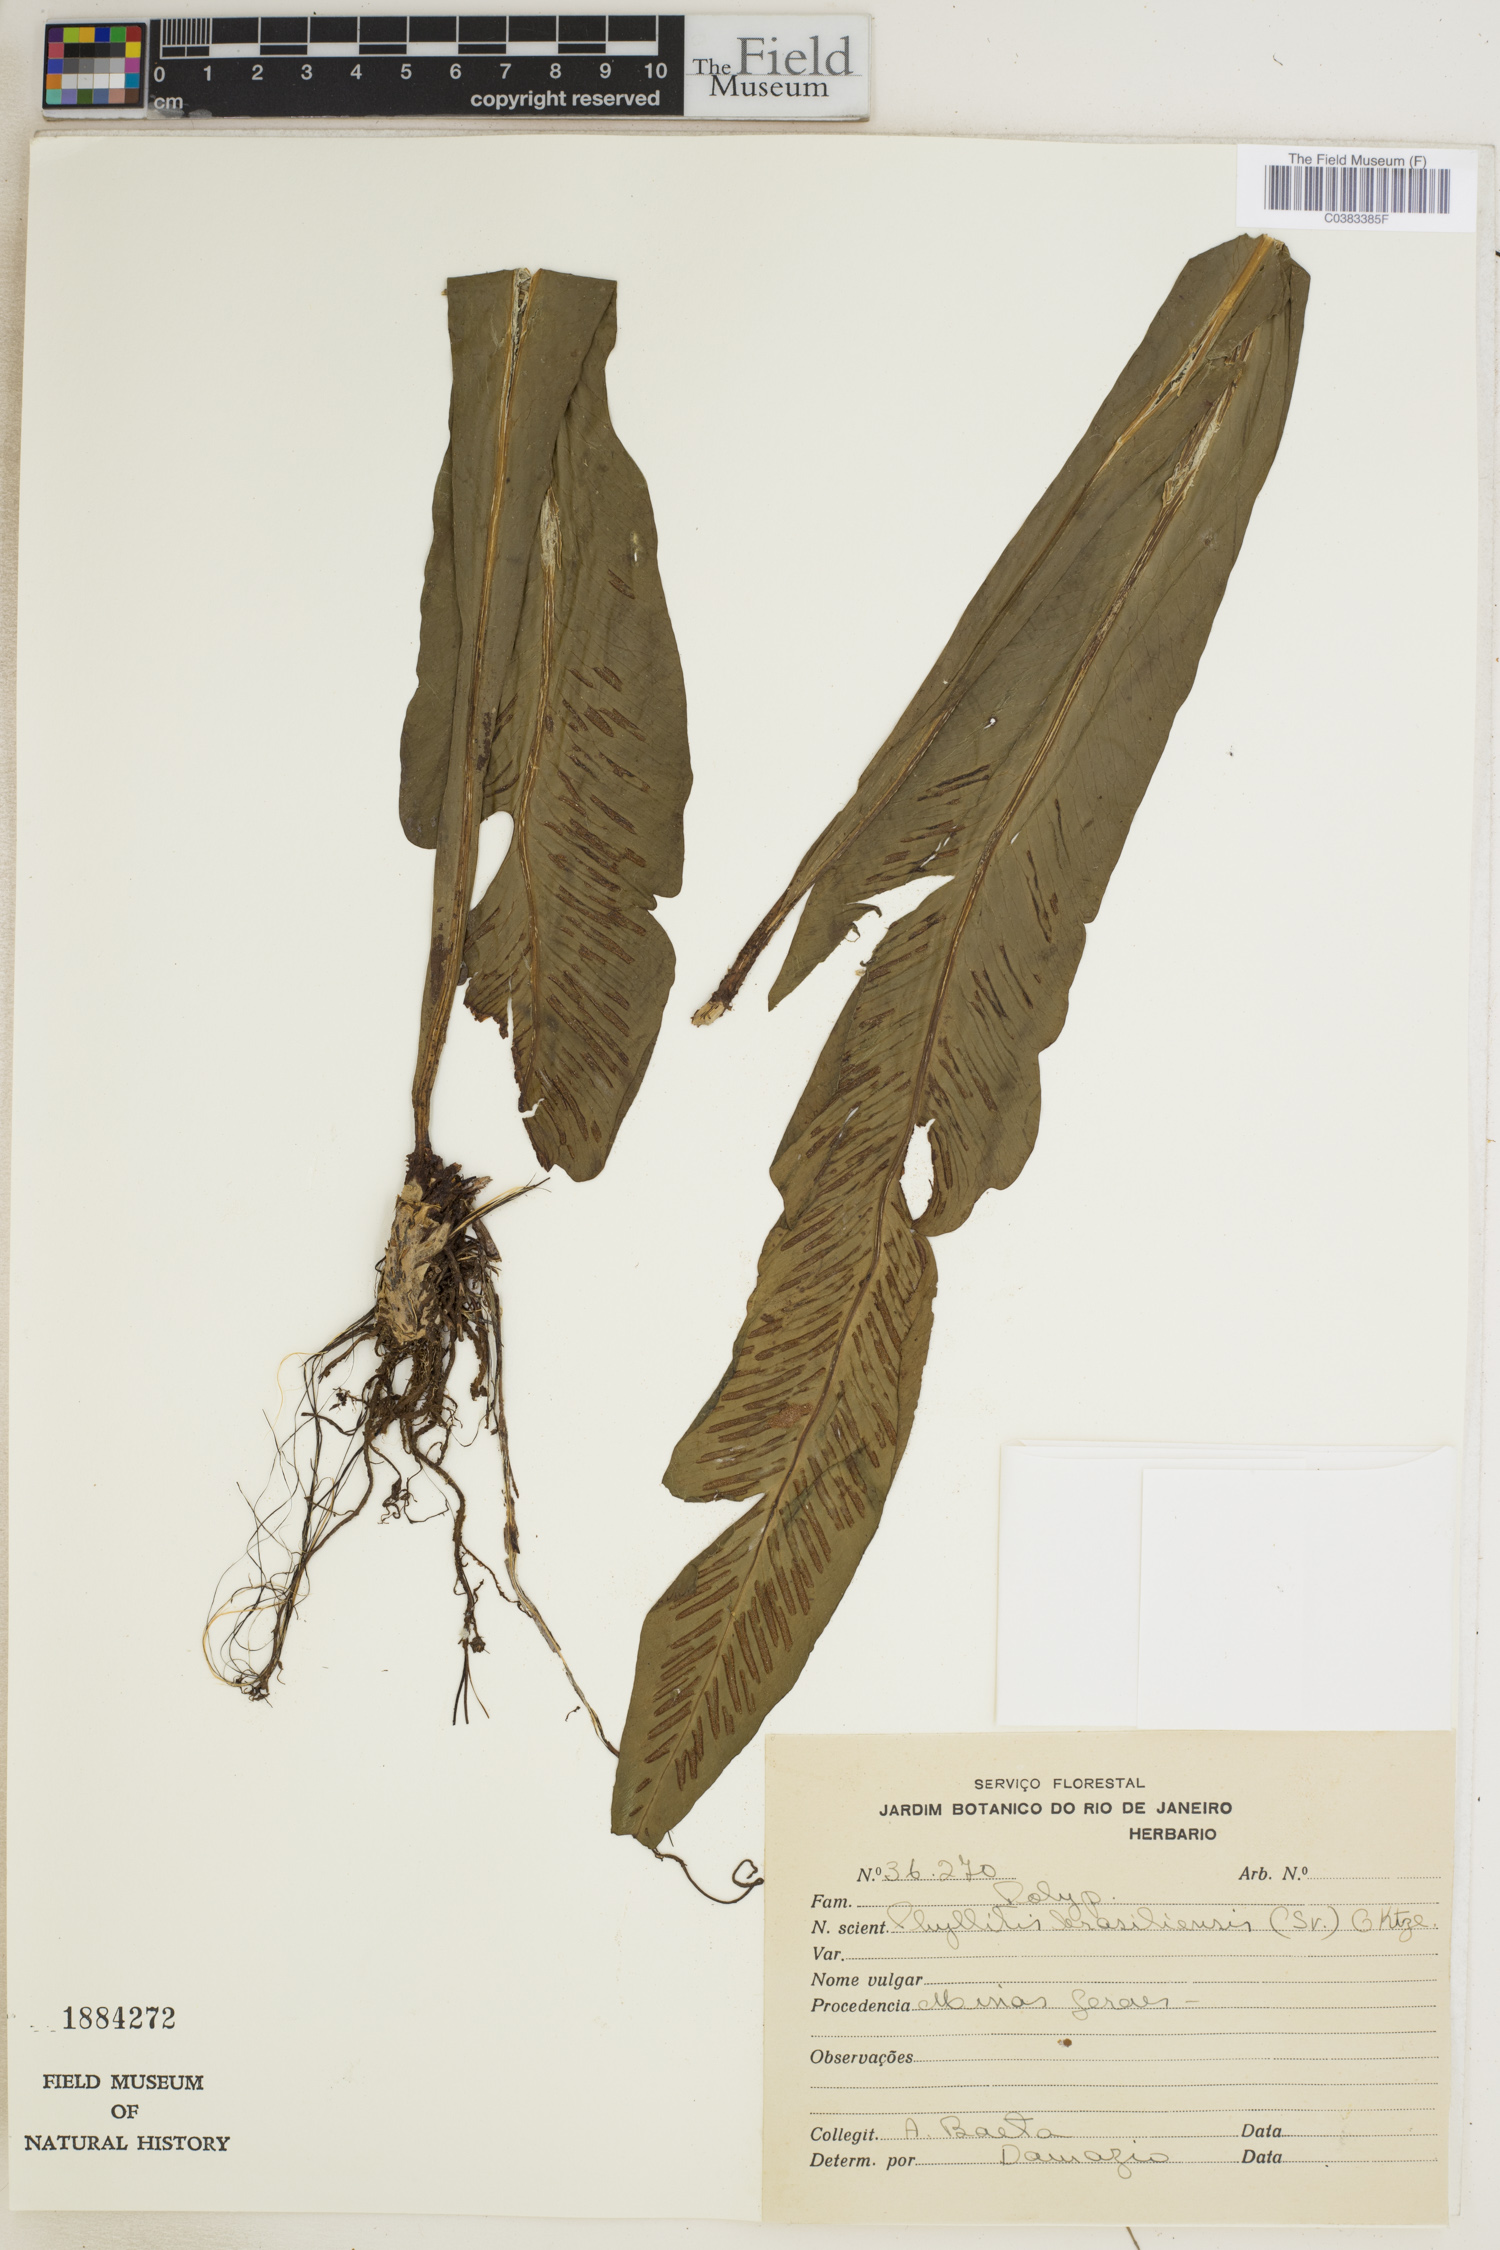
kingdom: Plantae
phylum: Tracheophyta
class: Polypodiopsida
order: Polypodiales
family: Aspleniaceae
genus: Asplenium
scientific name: Asplenium brasiliense
